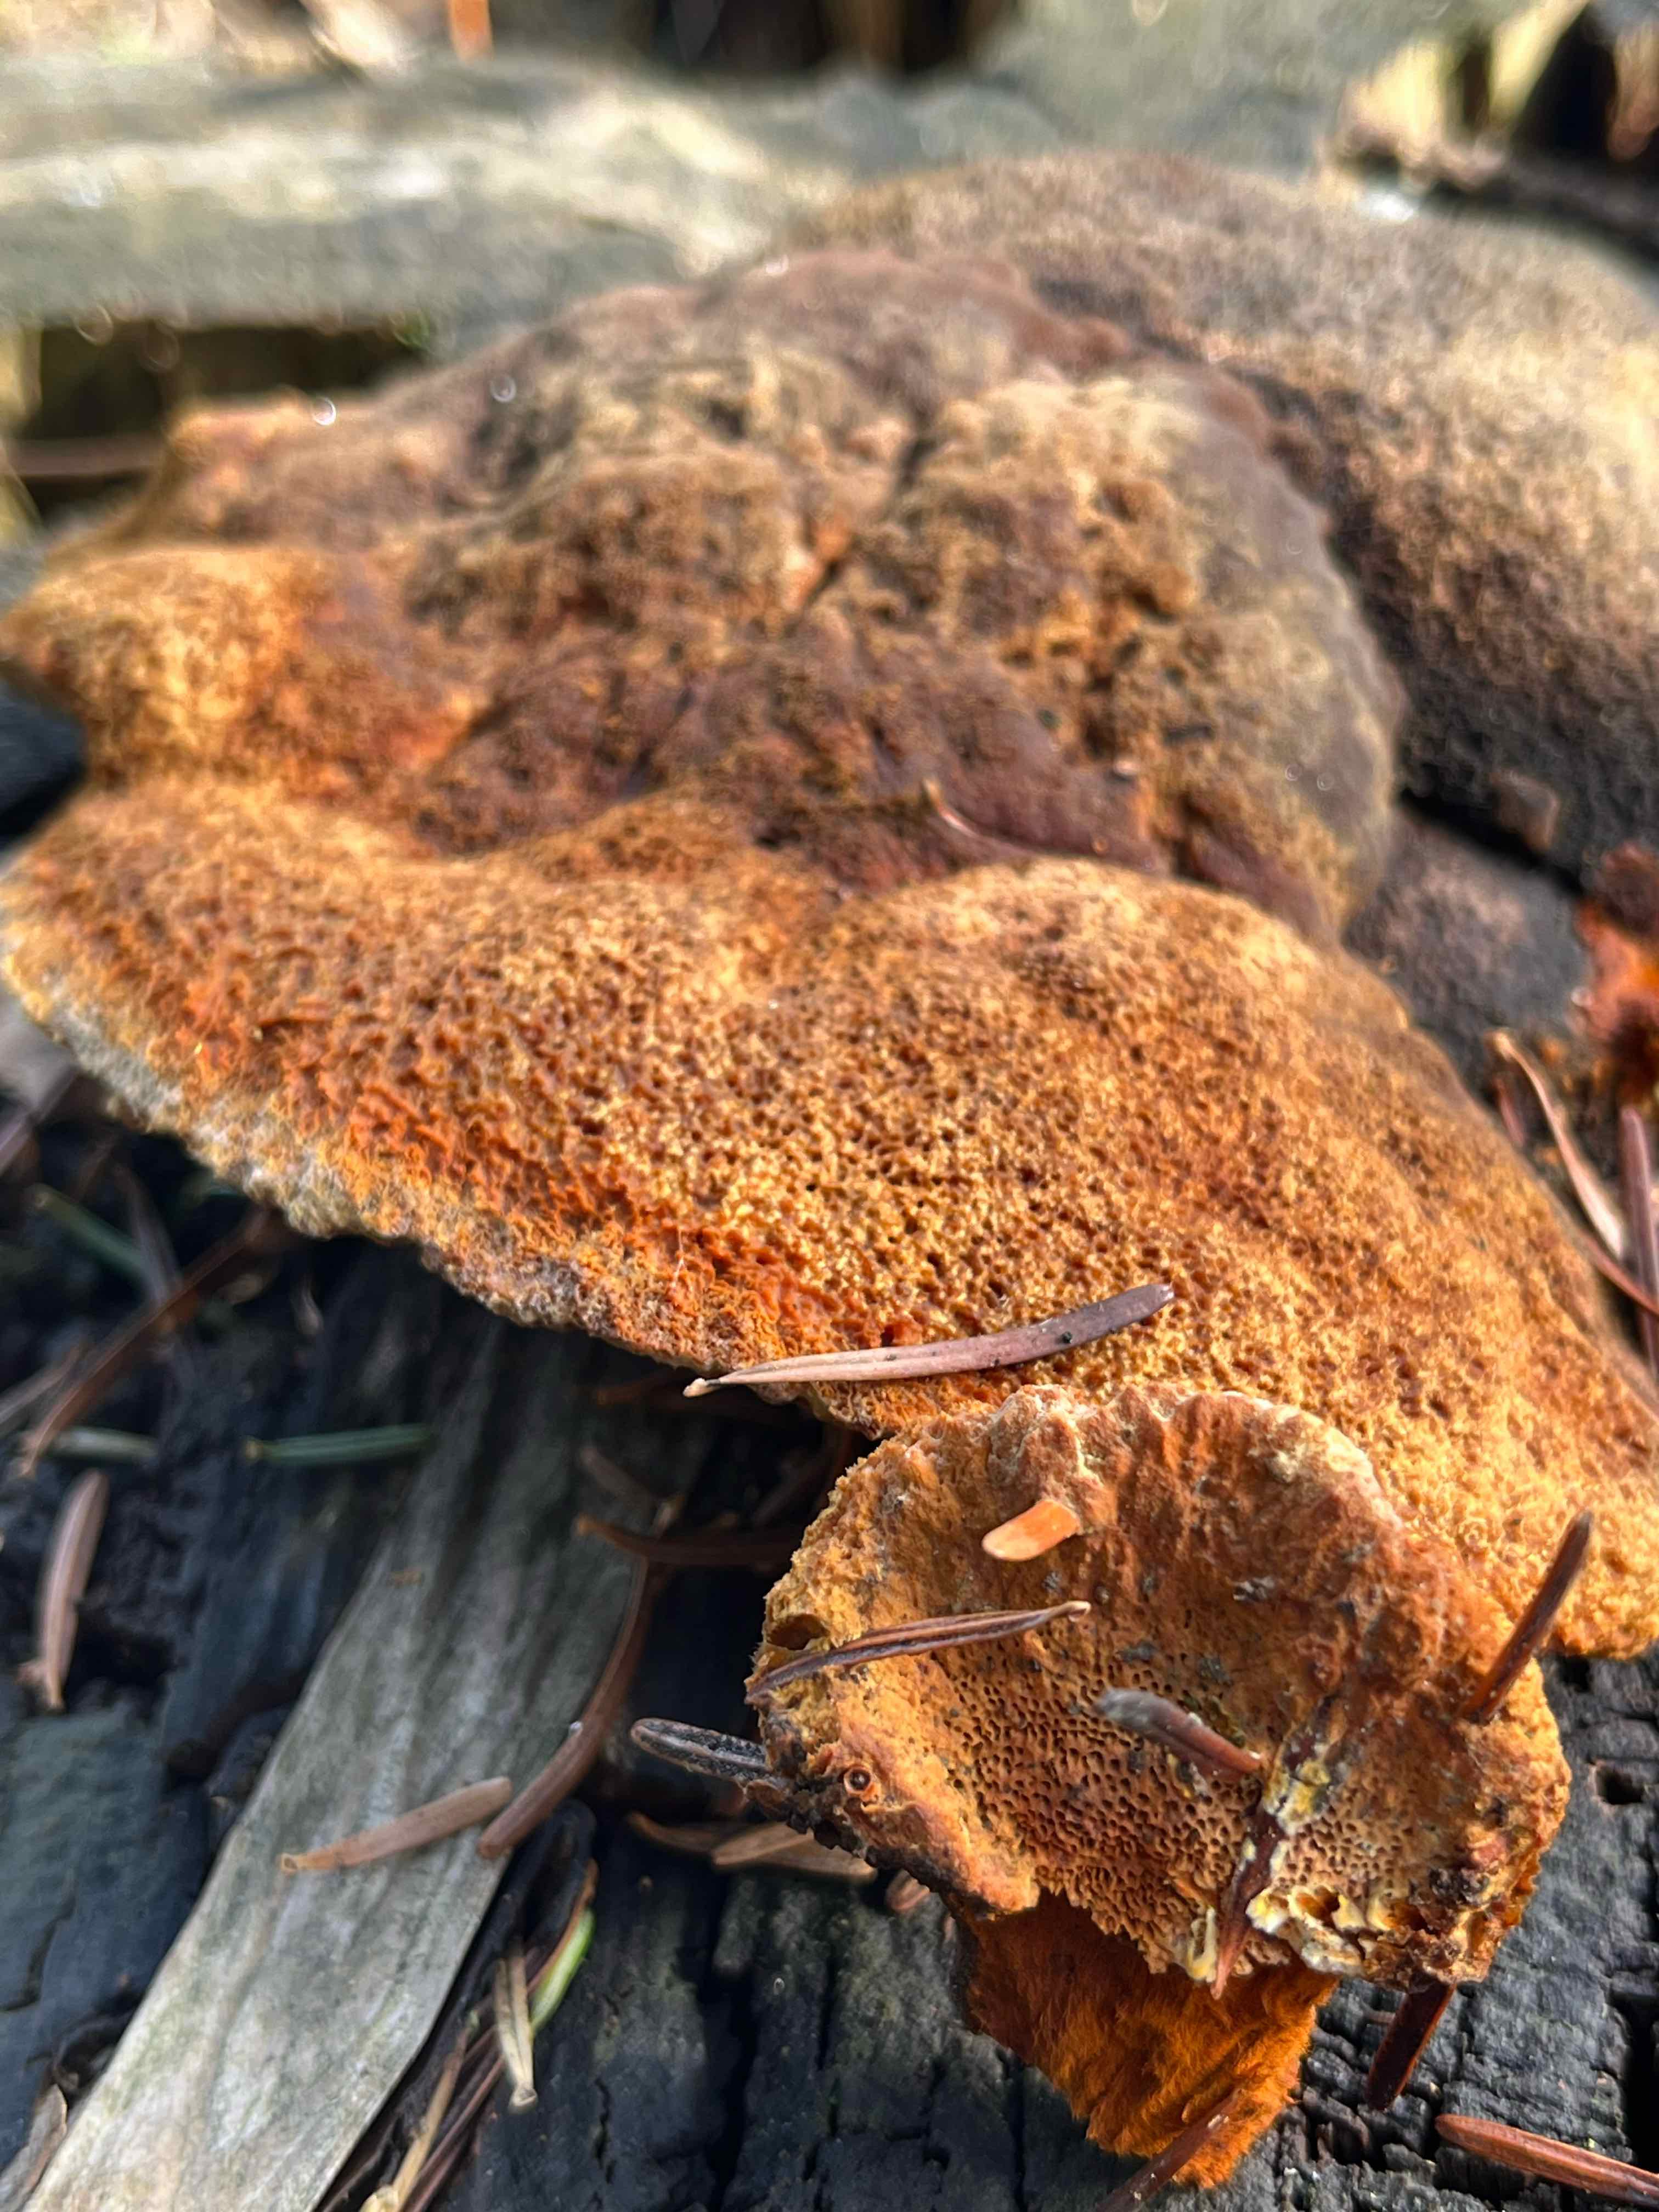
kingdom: Fungi
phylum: Basidiomycota
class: Agaricomycetes
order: Gloeophyllales
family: Gloeophyllaceae
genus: Gloeophyllum
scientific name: Gloeophyllum odoratum
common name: duftende korkhat
